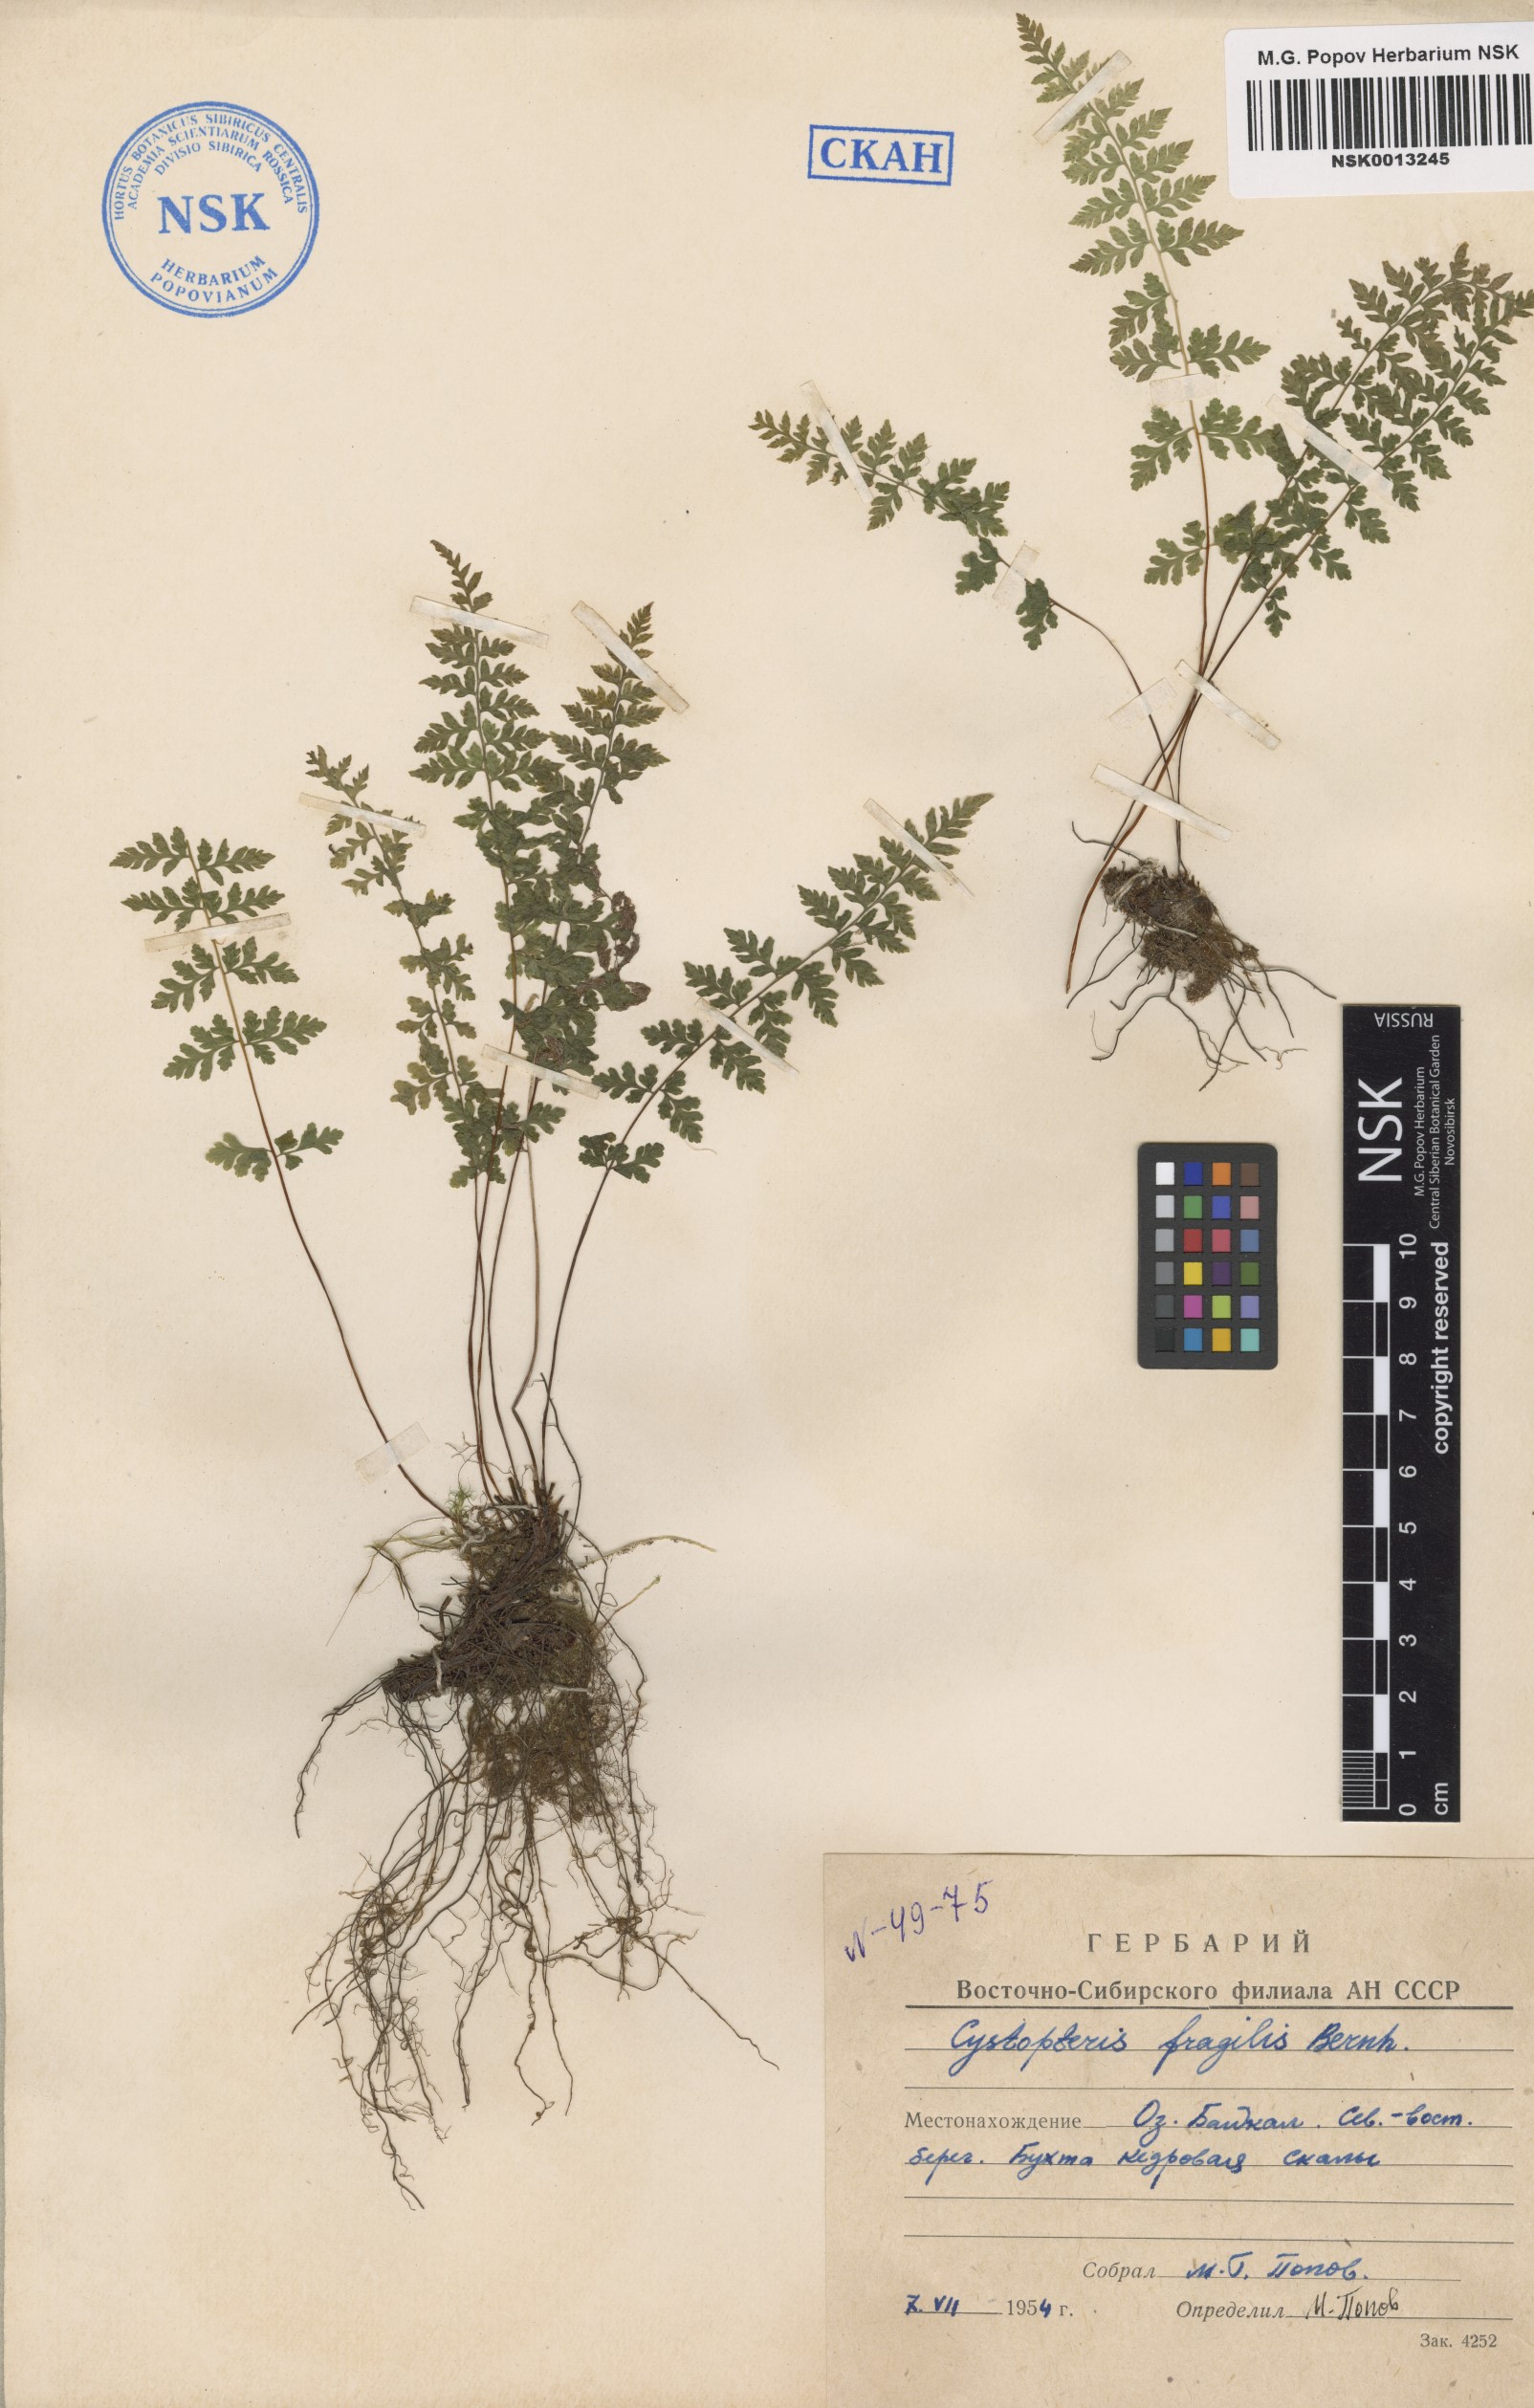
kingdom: Plantae
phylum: Tracheophyta
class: Polypodiopsida
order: Polypodiales
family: Cystopteridaceae
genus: Cystopteris
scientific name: Cystopteris fragilis
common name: Brittle bladder fern
